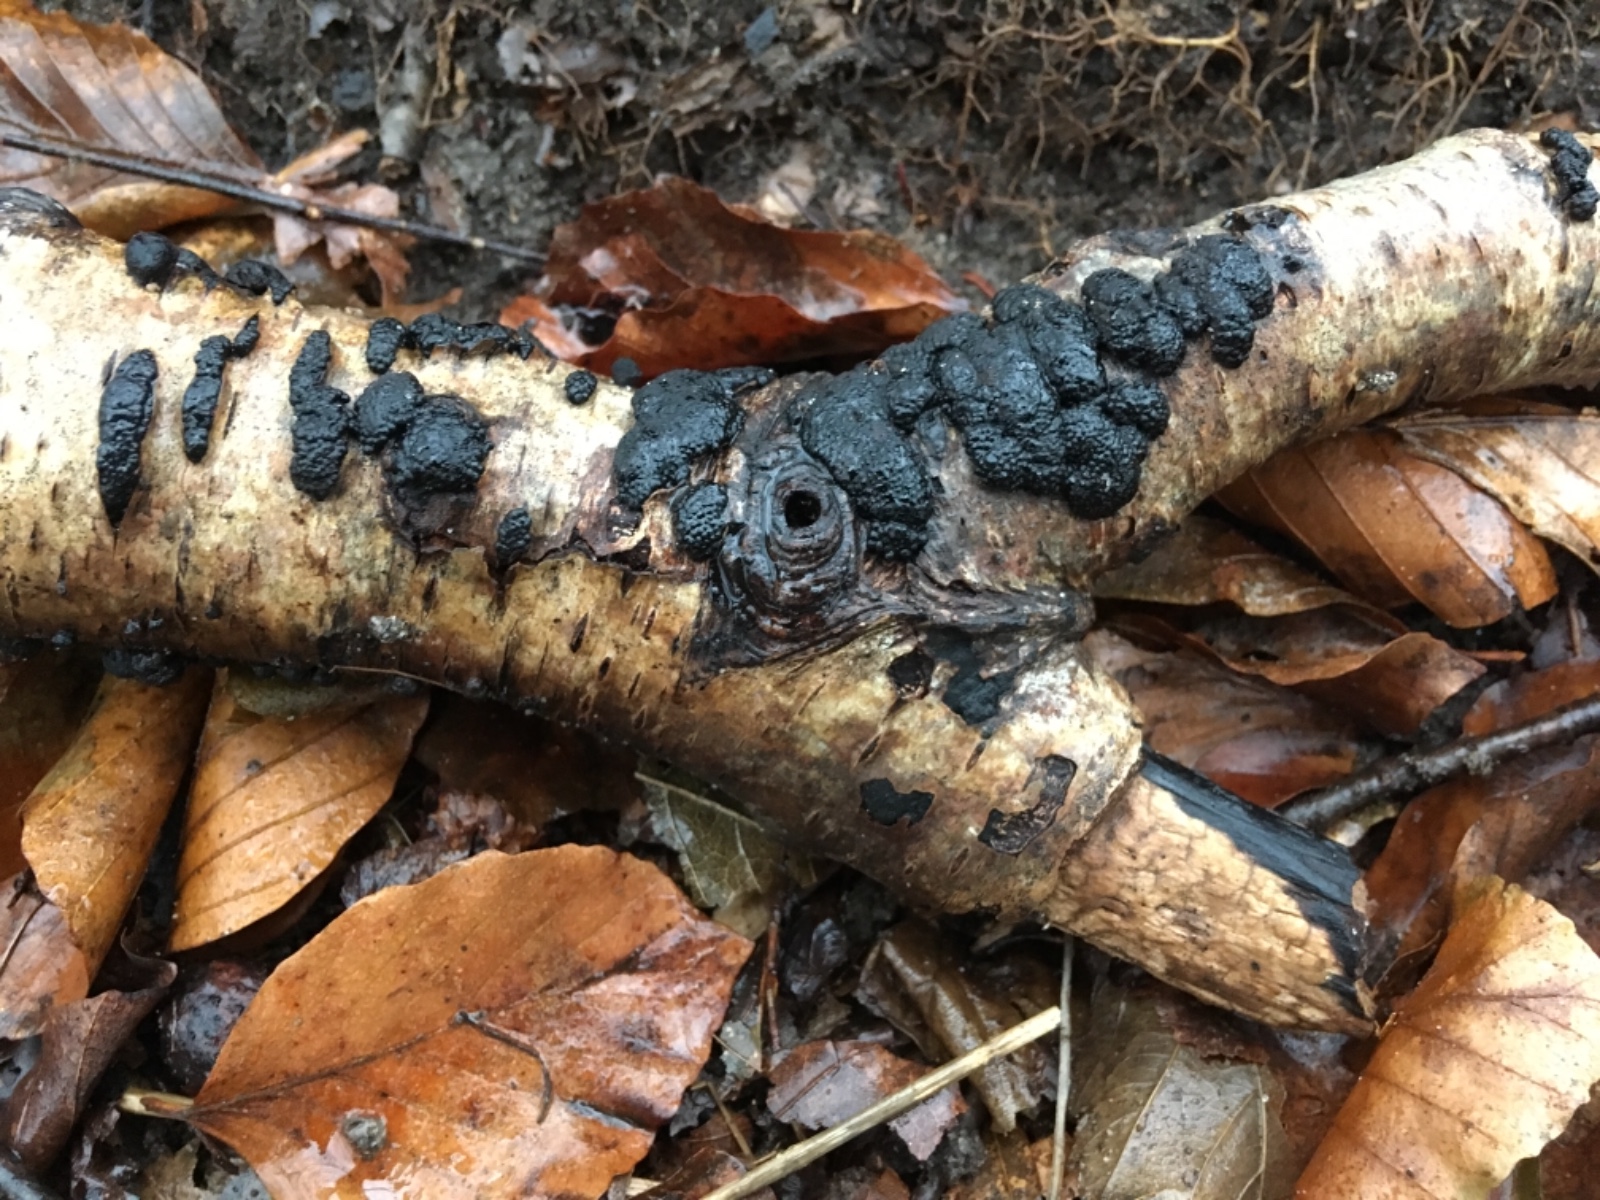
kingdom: Fungi
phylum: Ascomycota
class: Sordariomycetes
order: Xylariales
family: Hypoxylaceae
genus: Jackrogersella
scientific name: Jackrogersella multiformis
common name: foranderlig kulbær
